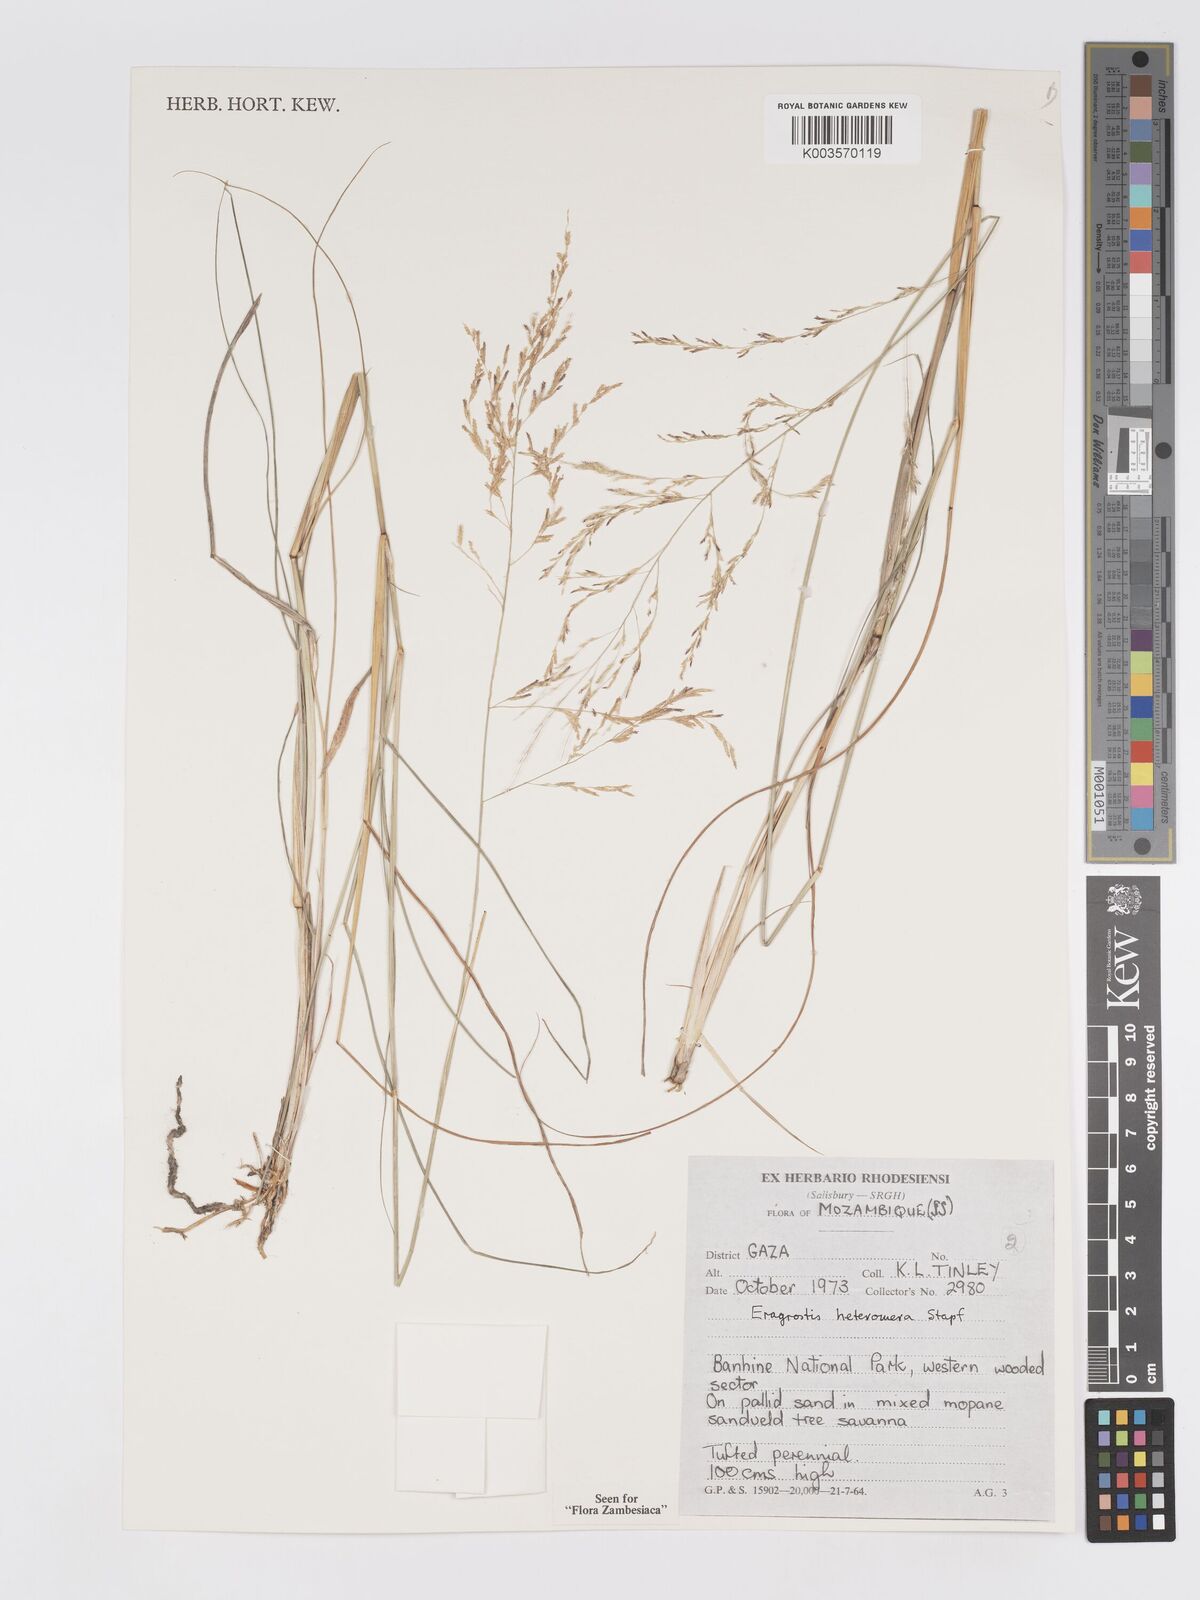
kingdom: Plantae
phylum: Tracheophyta
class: Liliopsida
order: Poales
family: Poaceae
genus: Eragrostis
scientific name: Eragrostis heteromera
